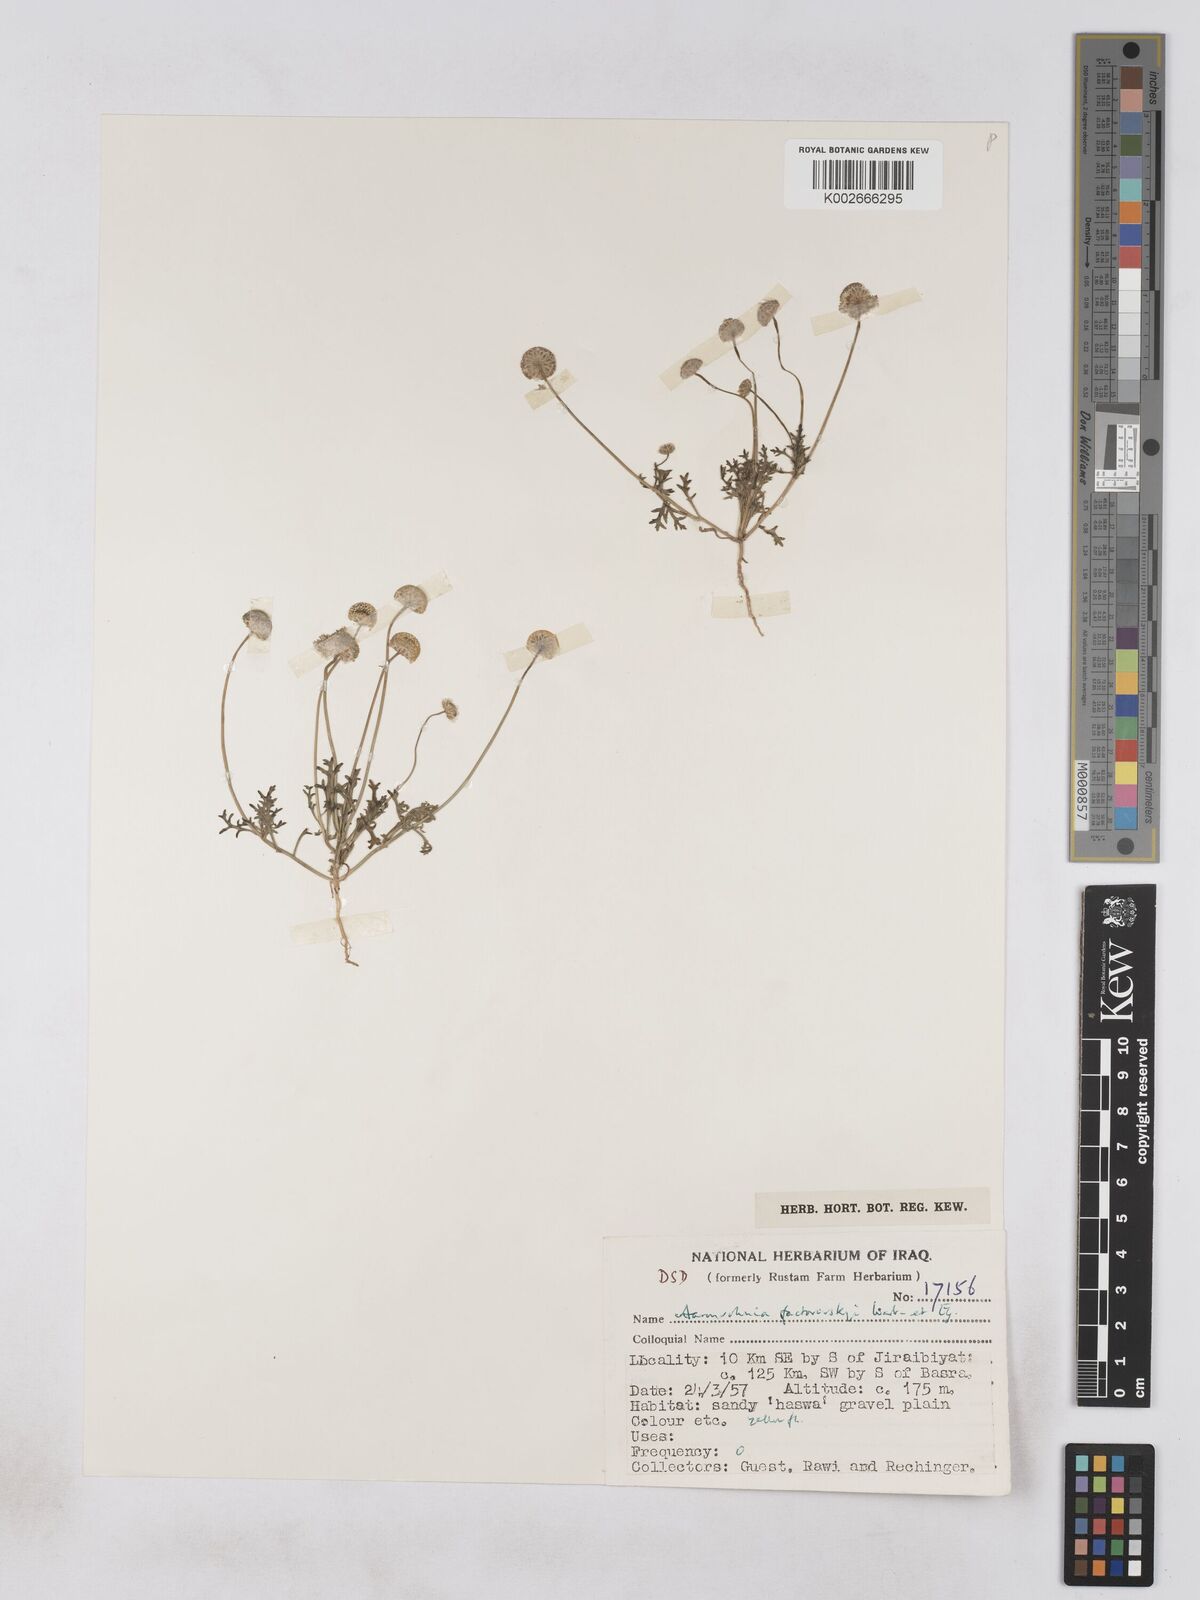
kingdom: Plantae
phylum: Tracheophyta
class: Magnoliopsida
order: Asterales
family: Asteraceae
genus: Otoglyphis
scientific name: Otoglyphis factorovskyi
